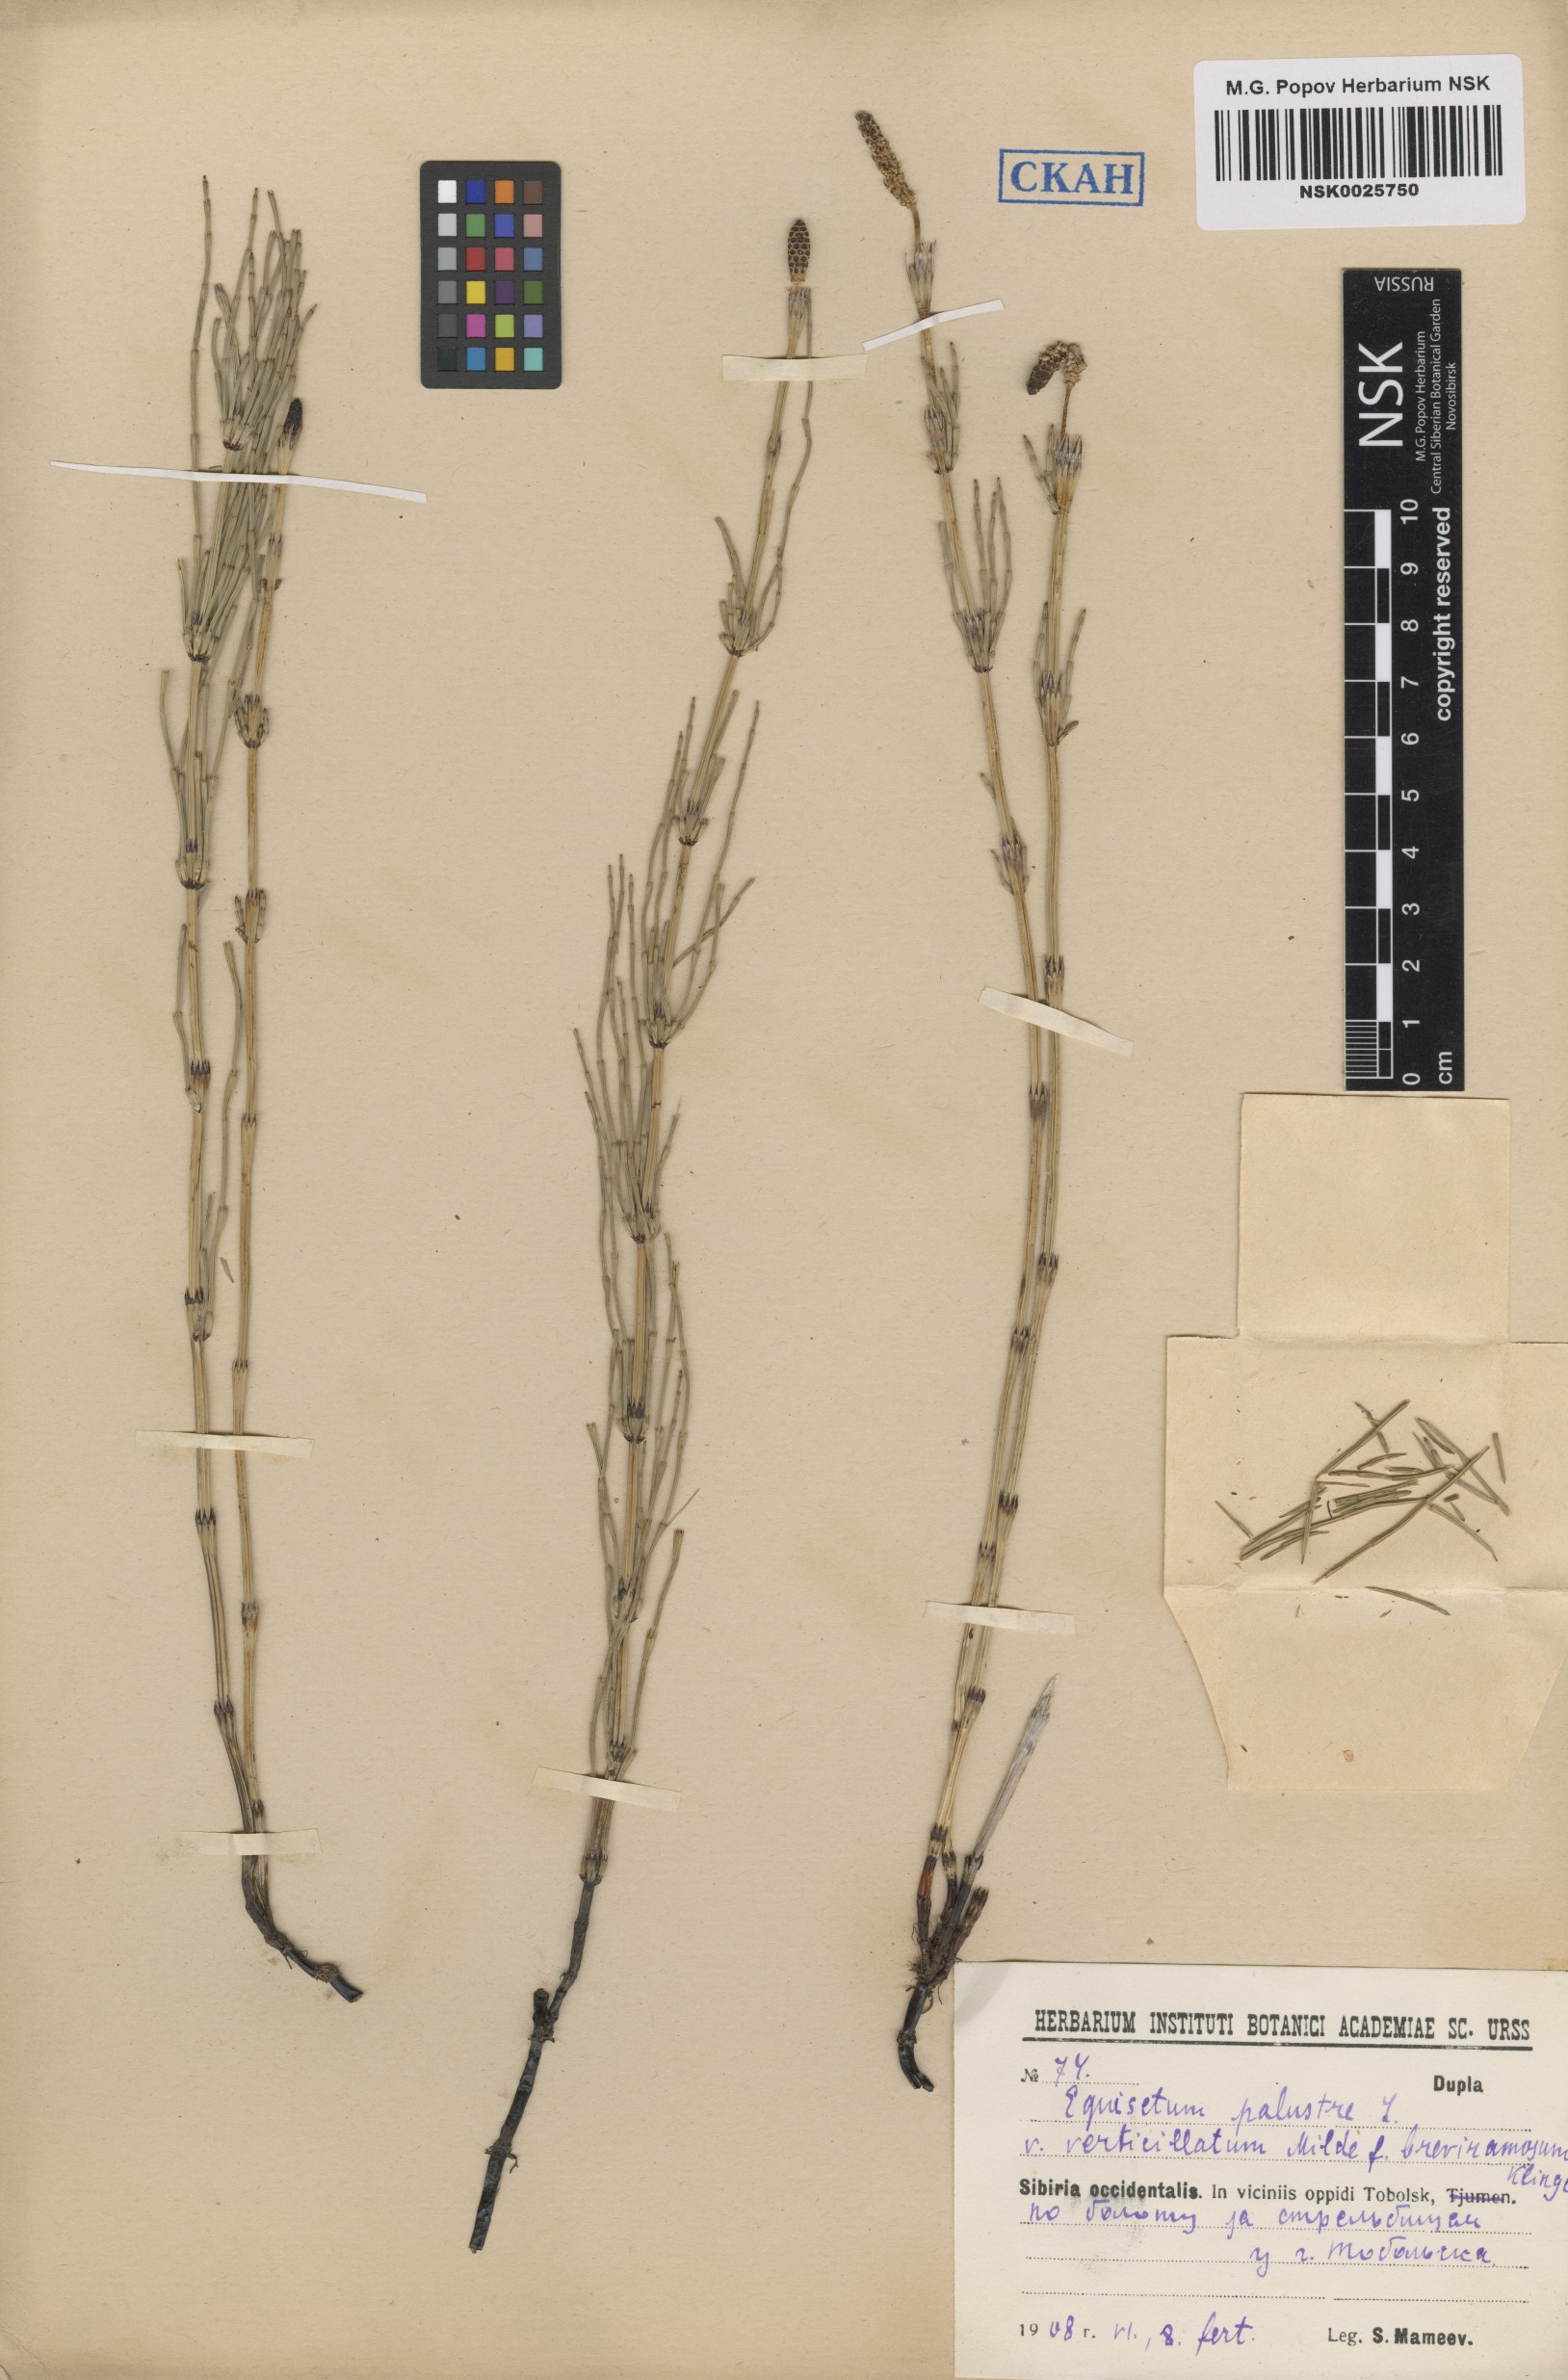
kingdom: Plantae
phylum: Tracheophyta
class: Polypodiopsida
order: Equisetales
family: Equisetaceae
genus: Equisetum
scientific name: Equisetum palustre
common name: Marsh horsetail
